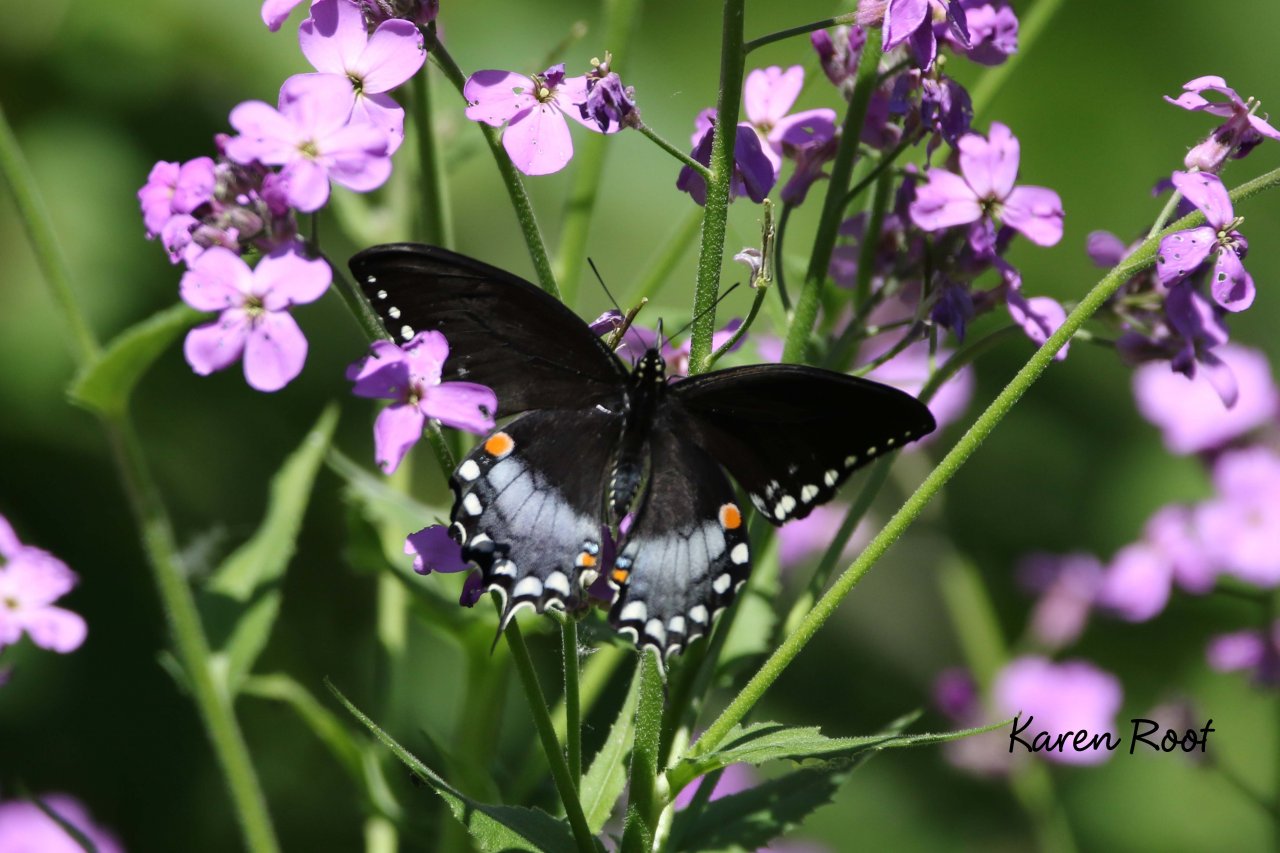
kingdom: Animalia
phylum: Arthropoda
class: Insecta
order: Lepidoptera
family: Papilionidae
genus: Pterourus
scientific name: Pterourus troilus
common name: Spicebush Swallowtail
